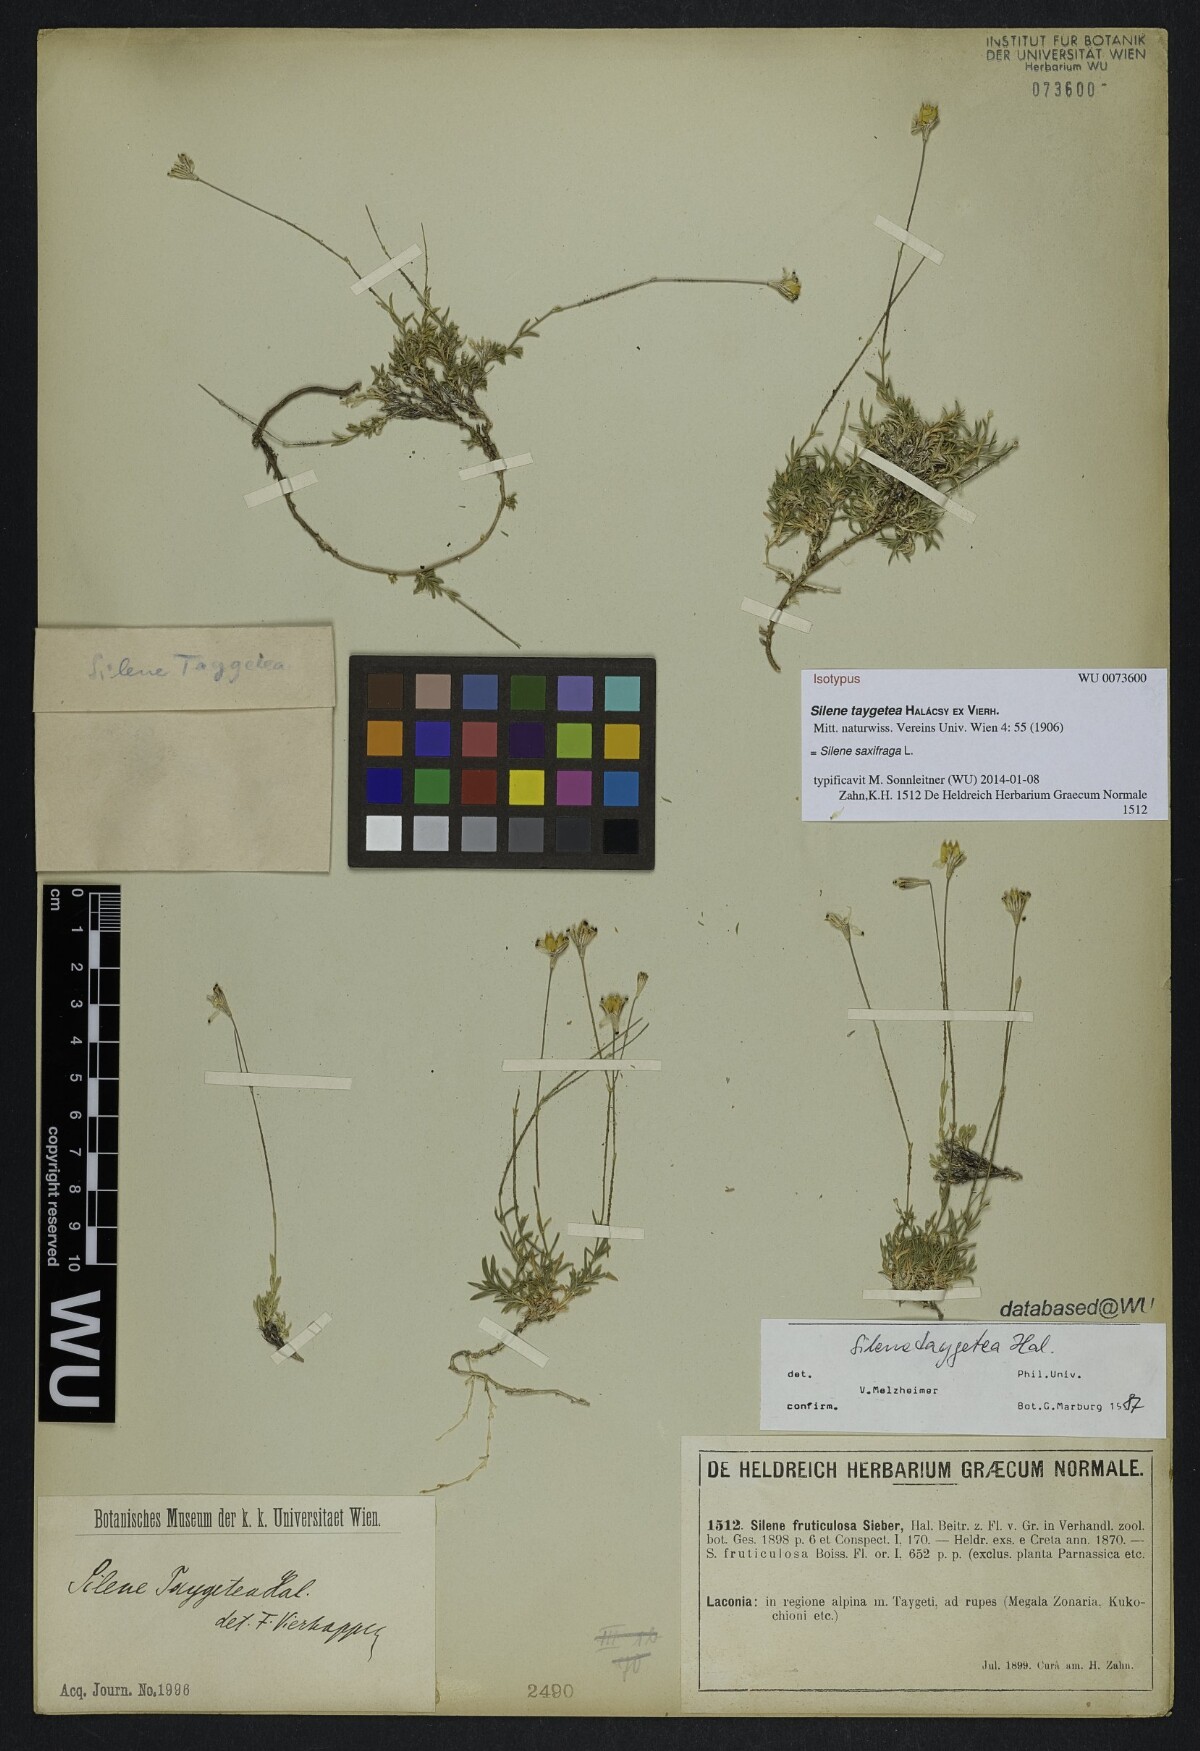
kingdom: Plantae
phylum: Tracheophyta
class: Magnoliopsida
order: Caryophyllales
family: Caryophyllaceae
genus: Silene
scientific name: Silene taygetea
